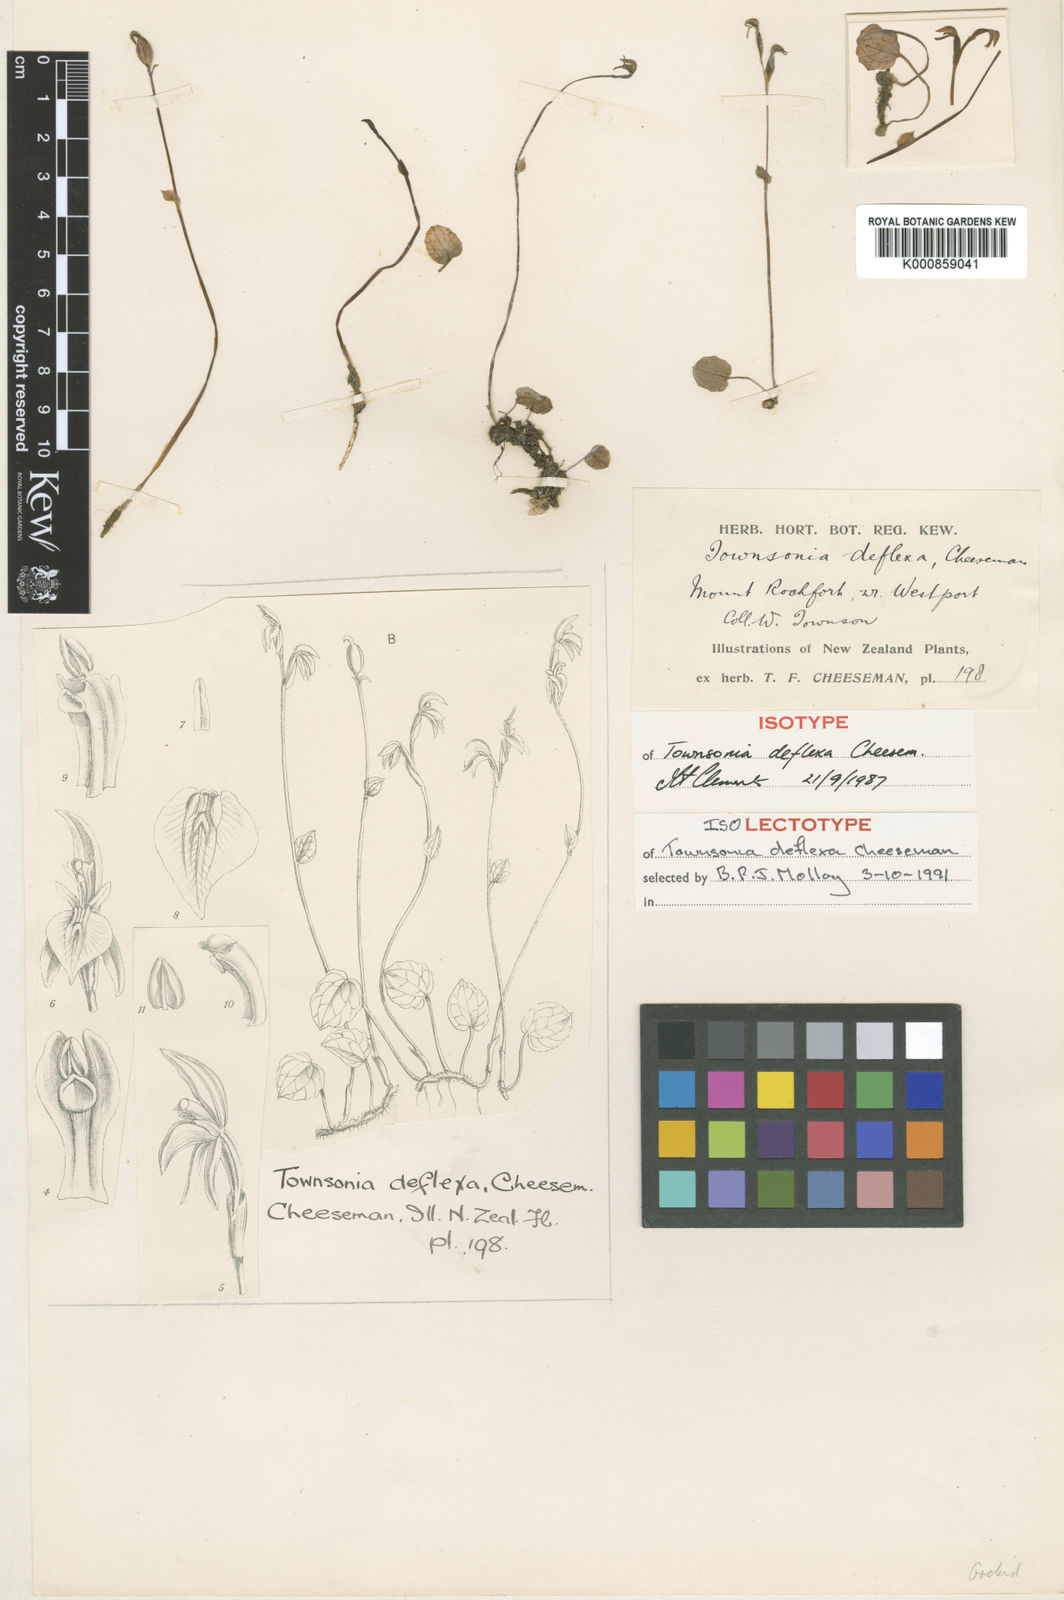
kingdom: Plantae
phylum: Tracheophyta
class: Liliopsida
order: Asparagales
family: Orchidaceae
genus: Townsonia
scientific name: Townsonia deflexa
